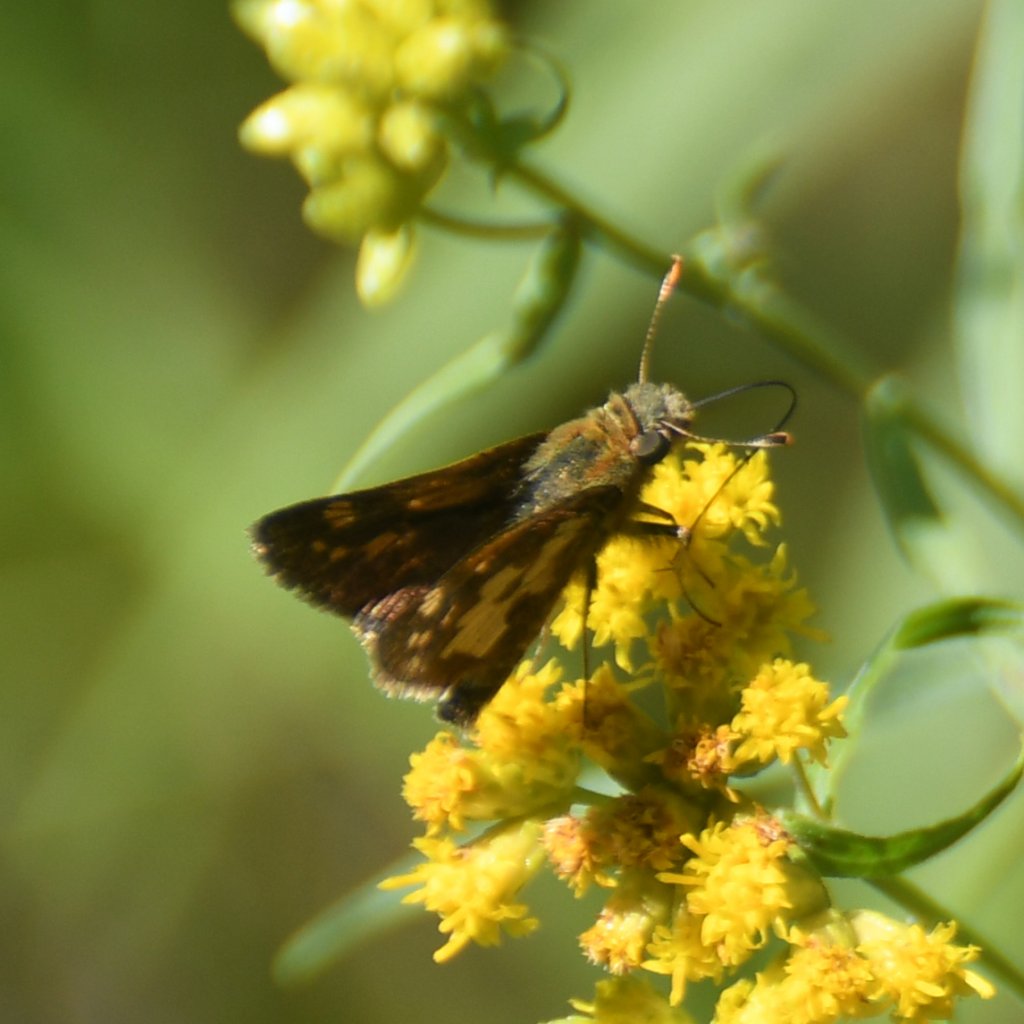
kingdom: Animalia
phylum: Arthropoda
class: Insecta
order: Lepidoptera
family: Hesperiidae
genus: Polites
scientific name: Polites coras
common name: Peck's Skipper
